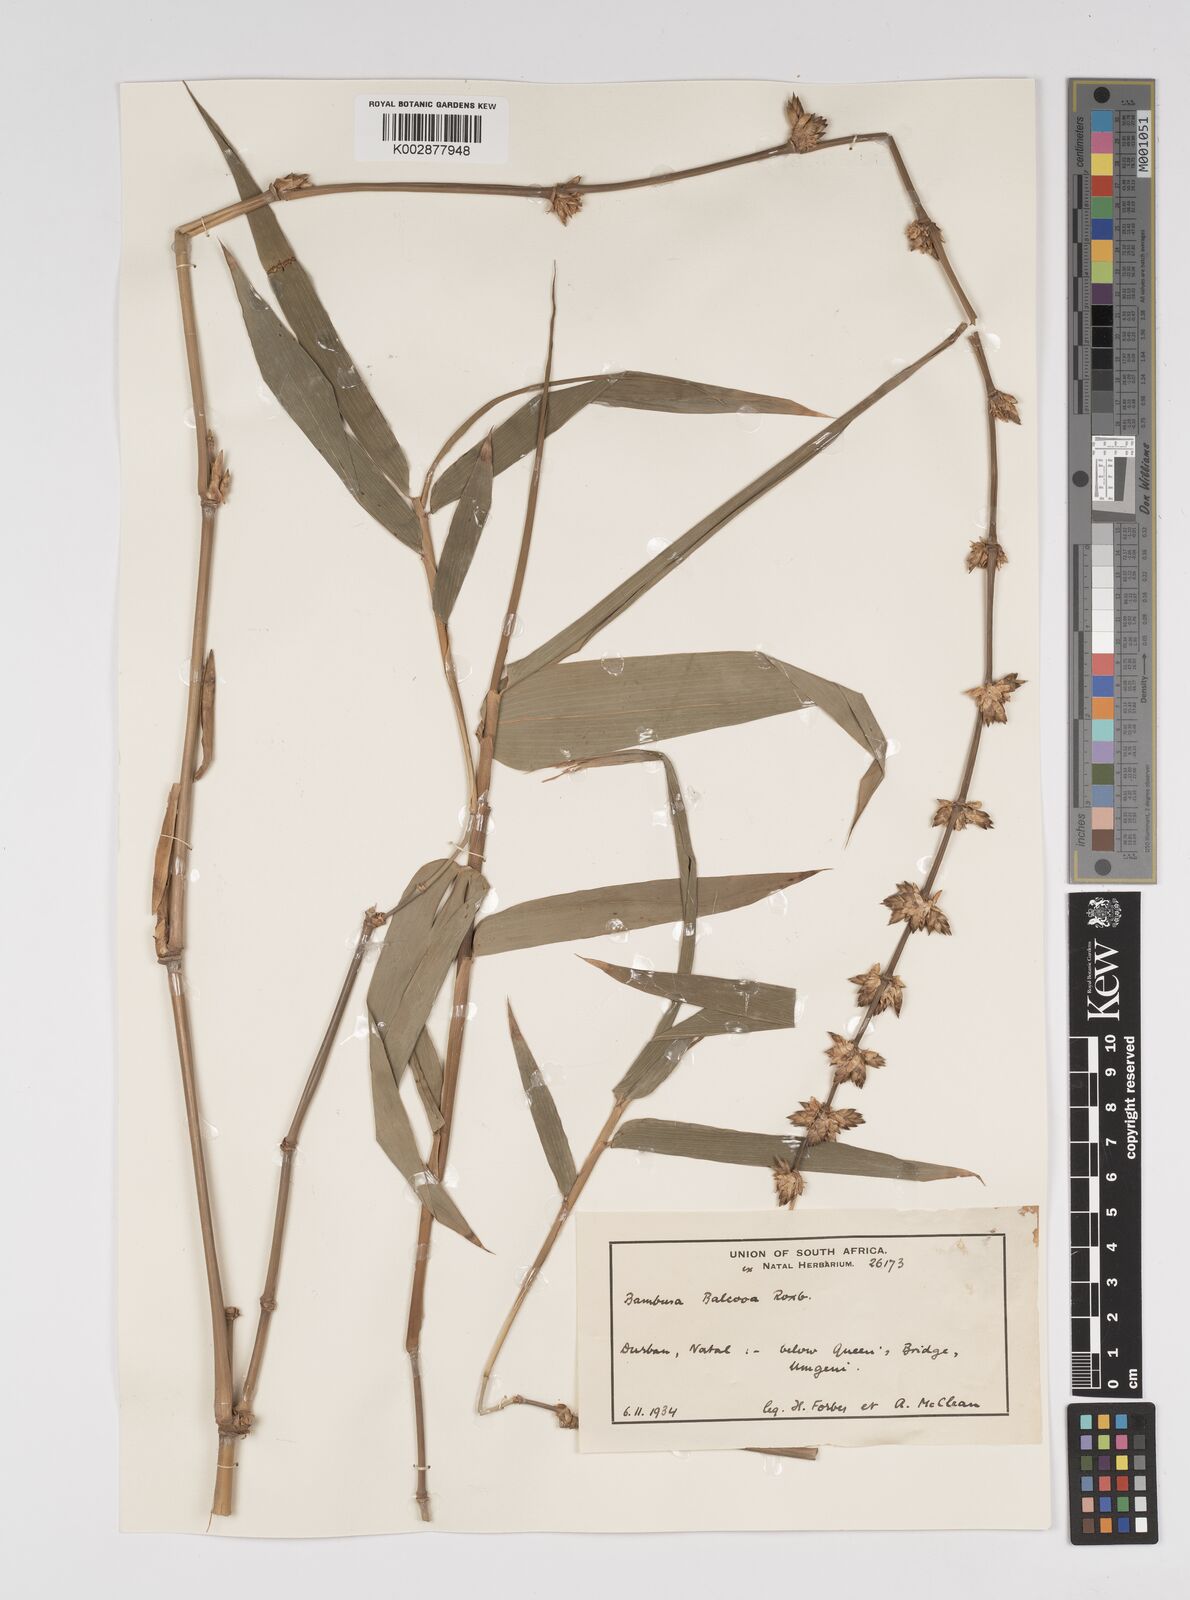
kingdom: Plantae
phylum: Tracheophyta
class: Liliopsida
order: Poales
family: Poaceae
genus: Bambusa
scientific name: Bambusa balcooa
